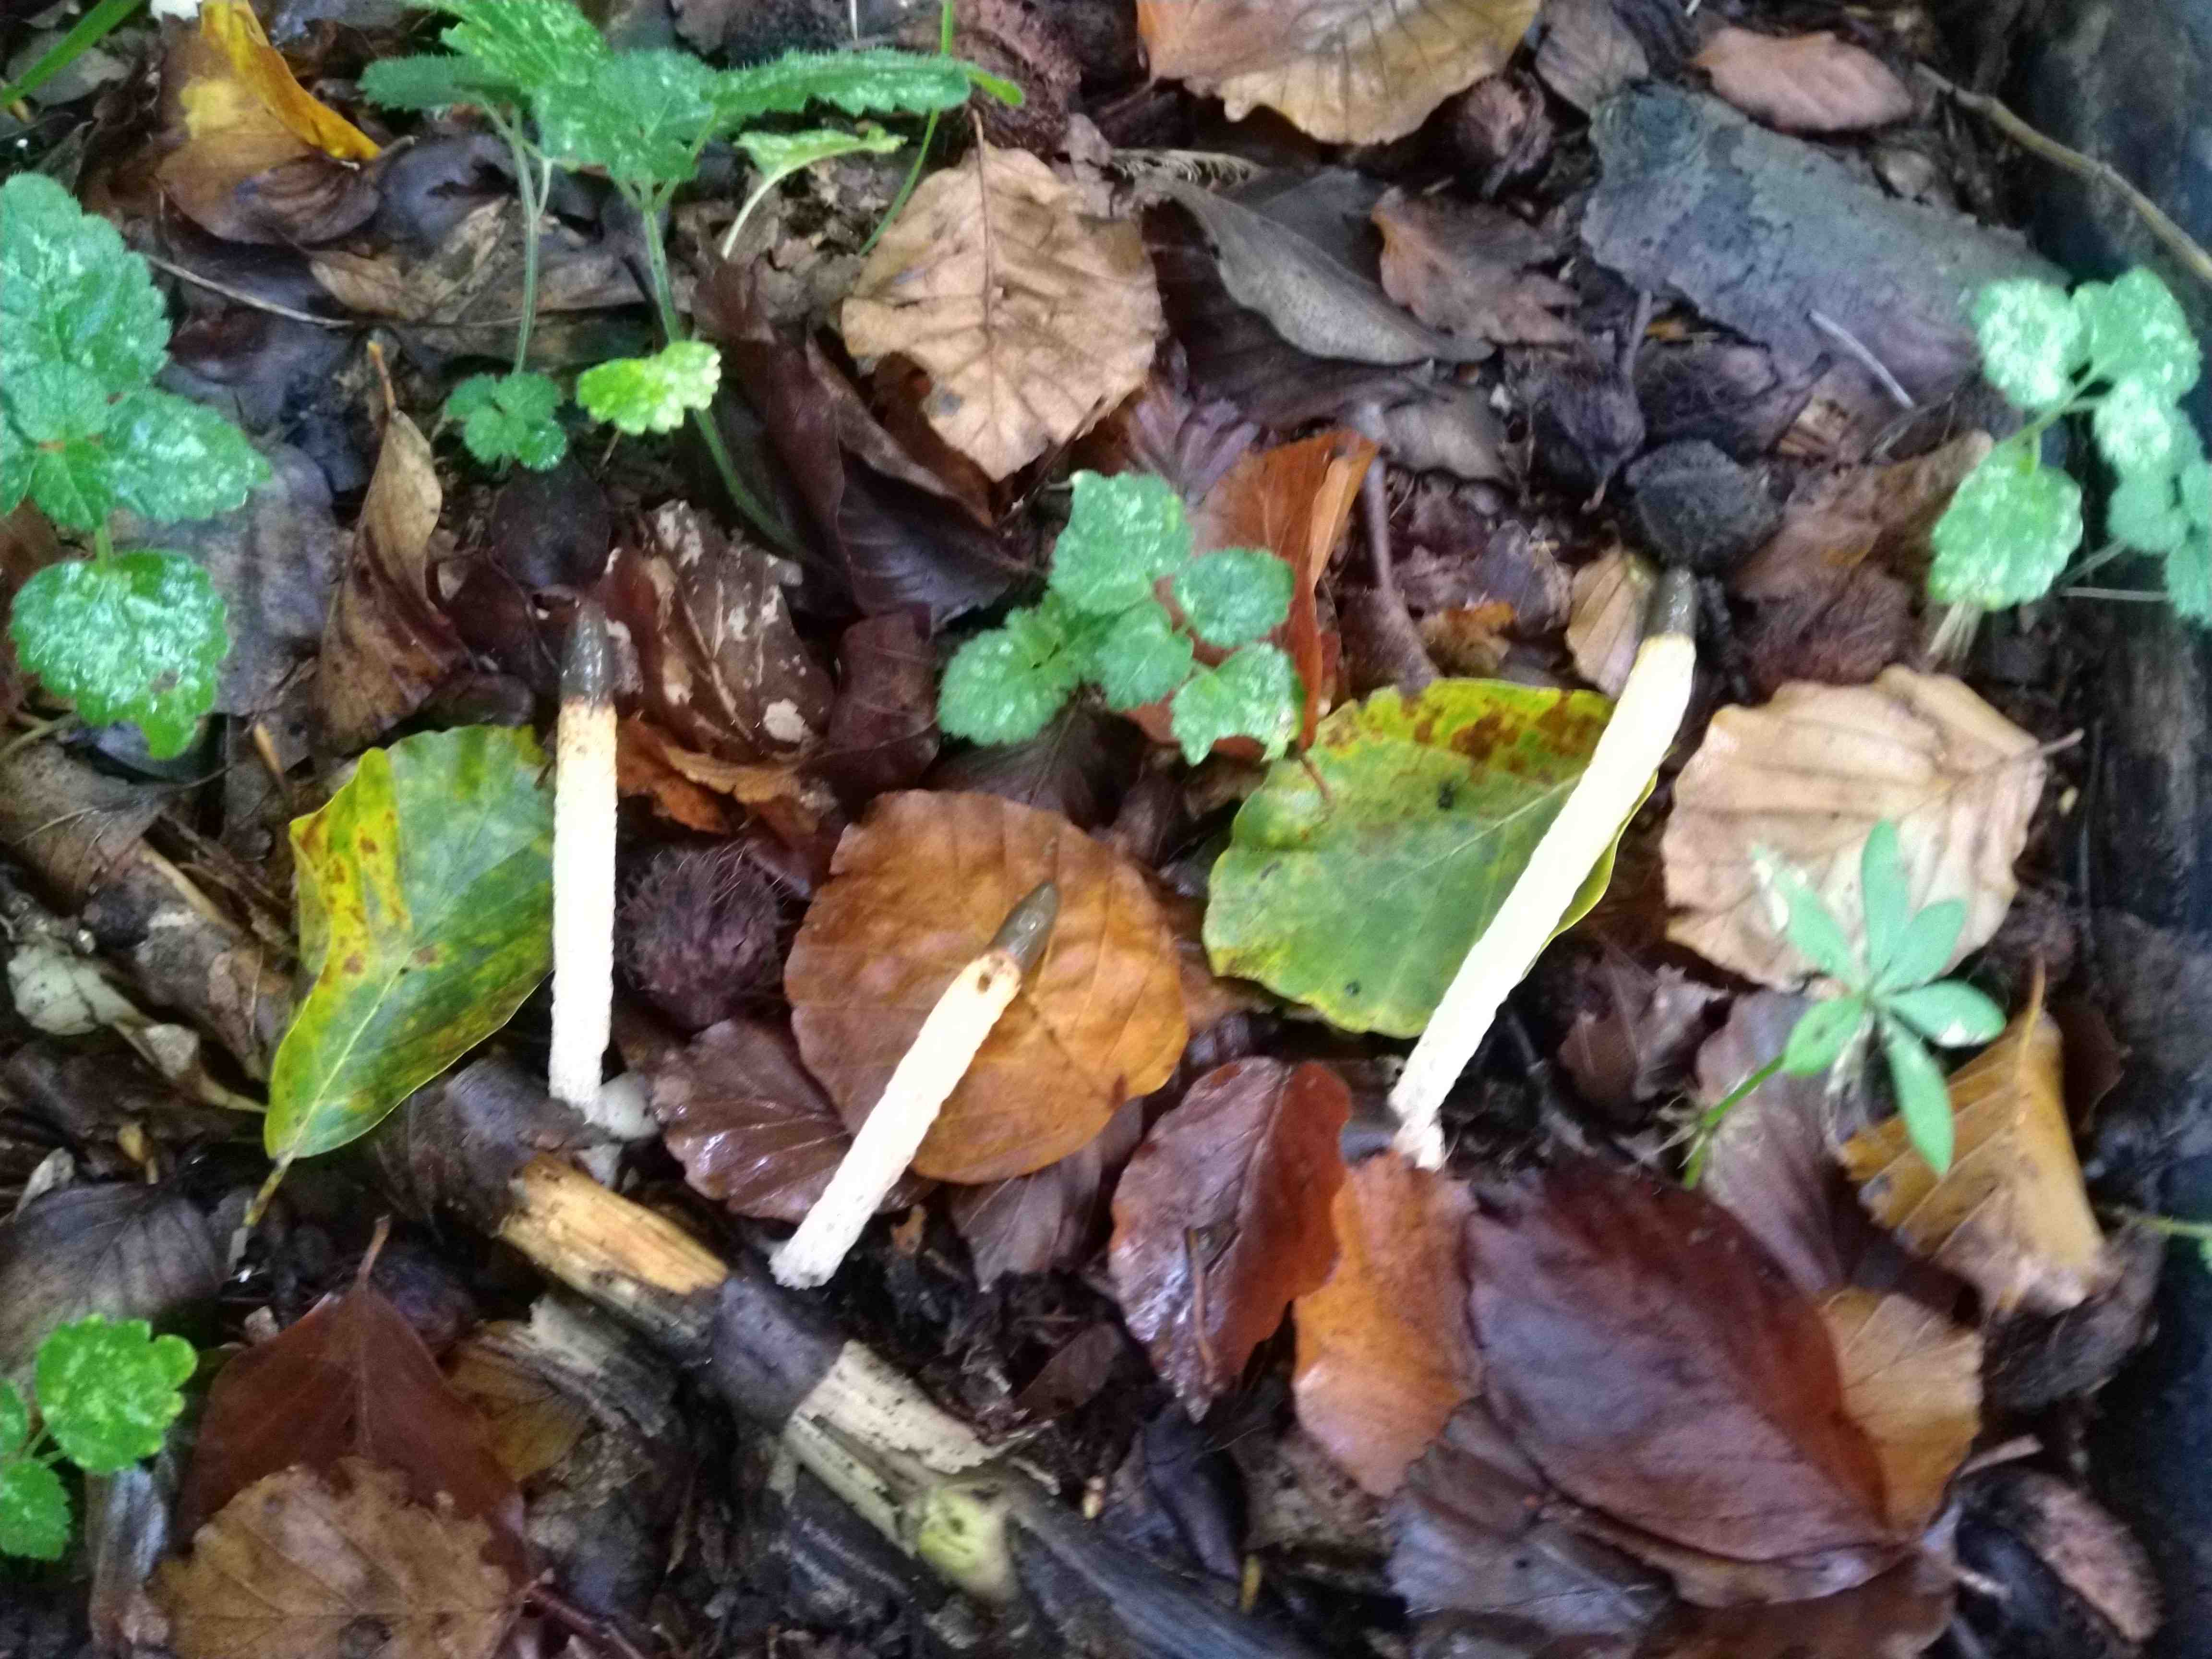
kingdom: Fungi
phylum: Basidiomycota
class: Agaricomycetes
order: Phallales
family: Phallaceae
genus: Mutinus
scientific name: Mutinus caninus
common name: hunde-stinksvamp
